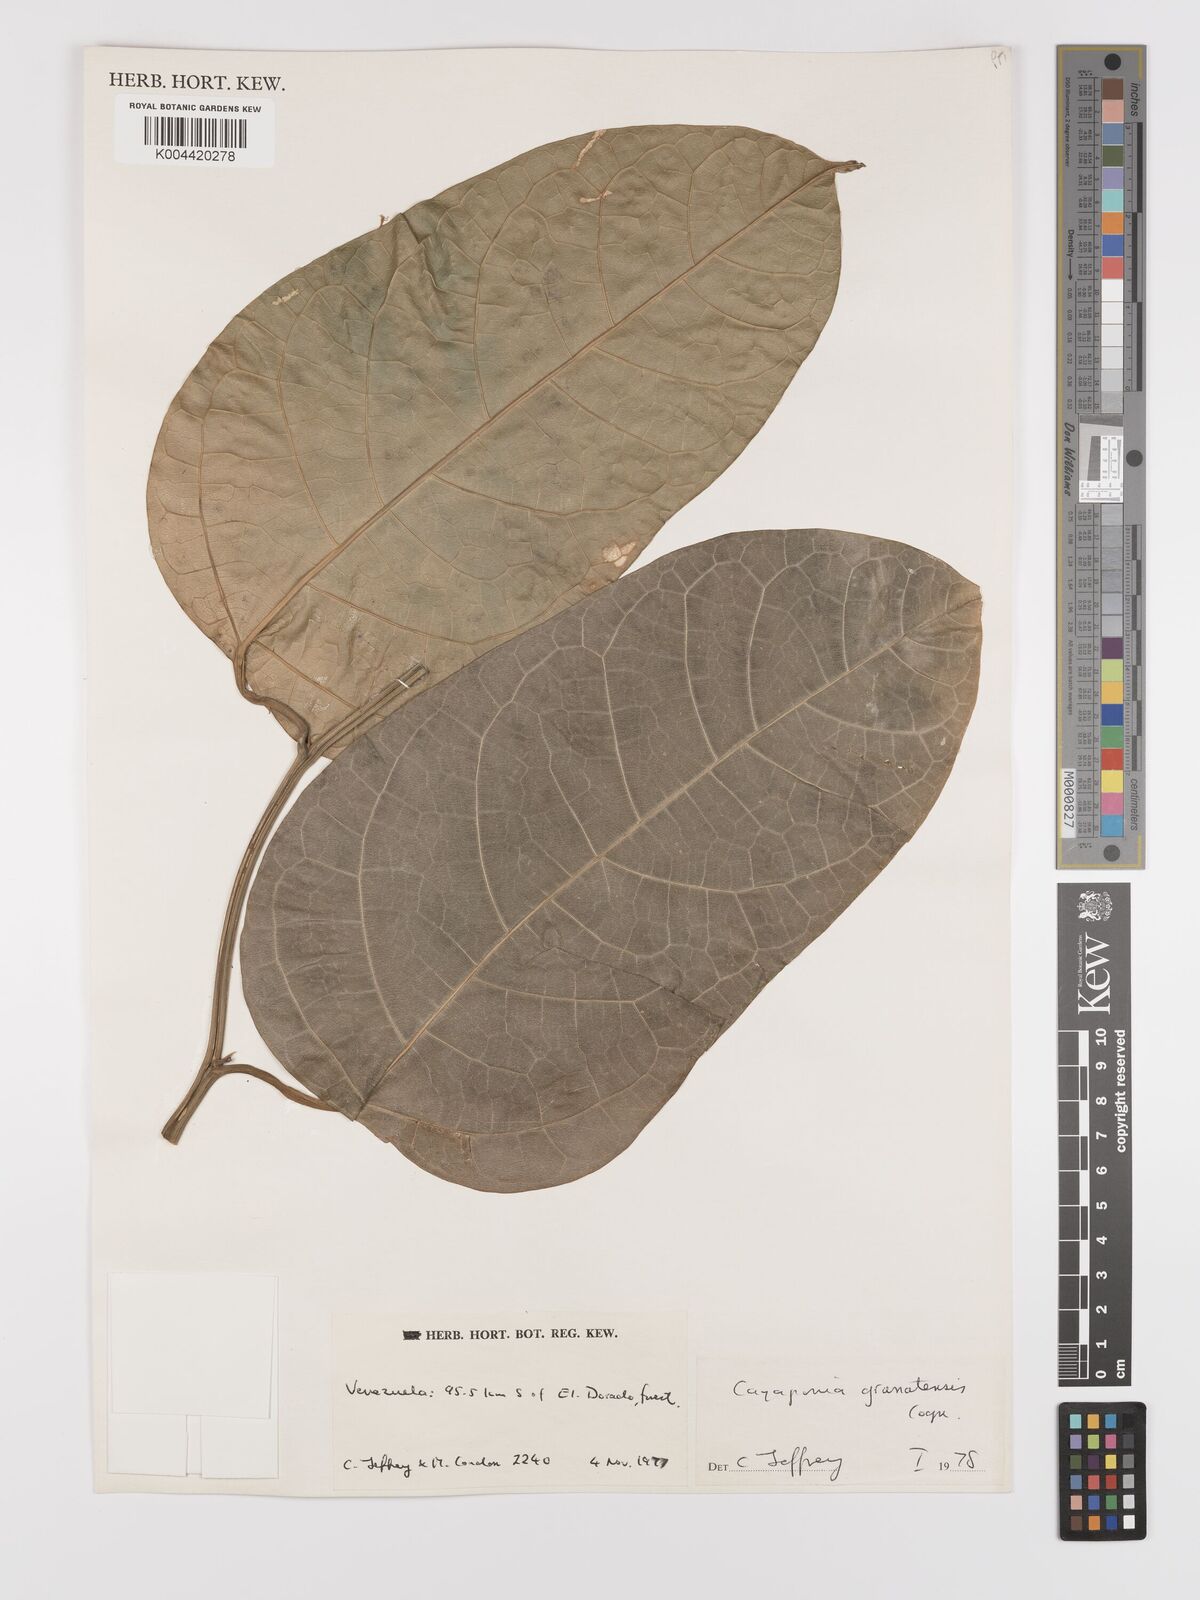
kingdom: Plantae
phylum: Tracheophyta
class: Magnoliopsida
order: Cucurbitales
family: Cucurbitaceae
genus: Cayaponia
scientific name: Cayaponia granatensis
